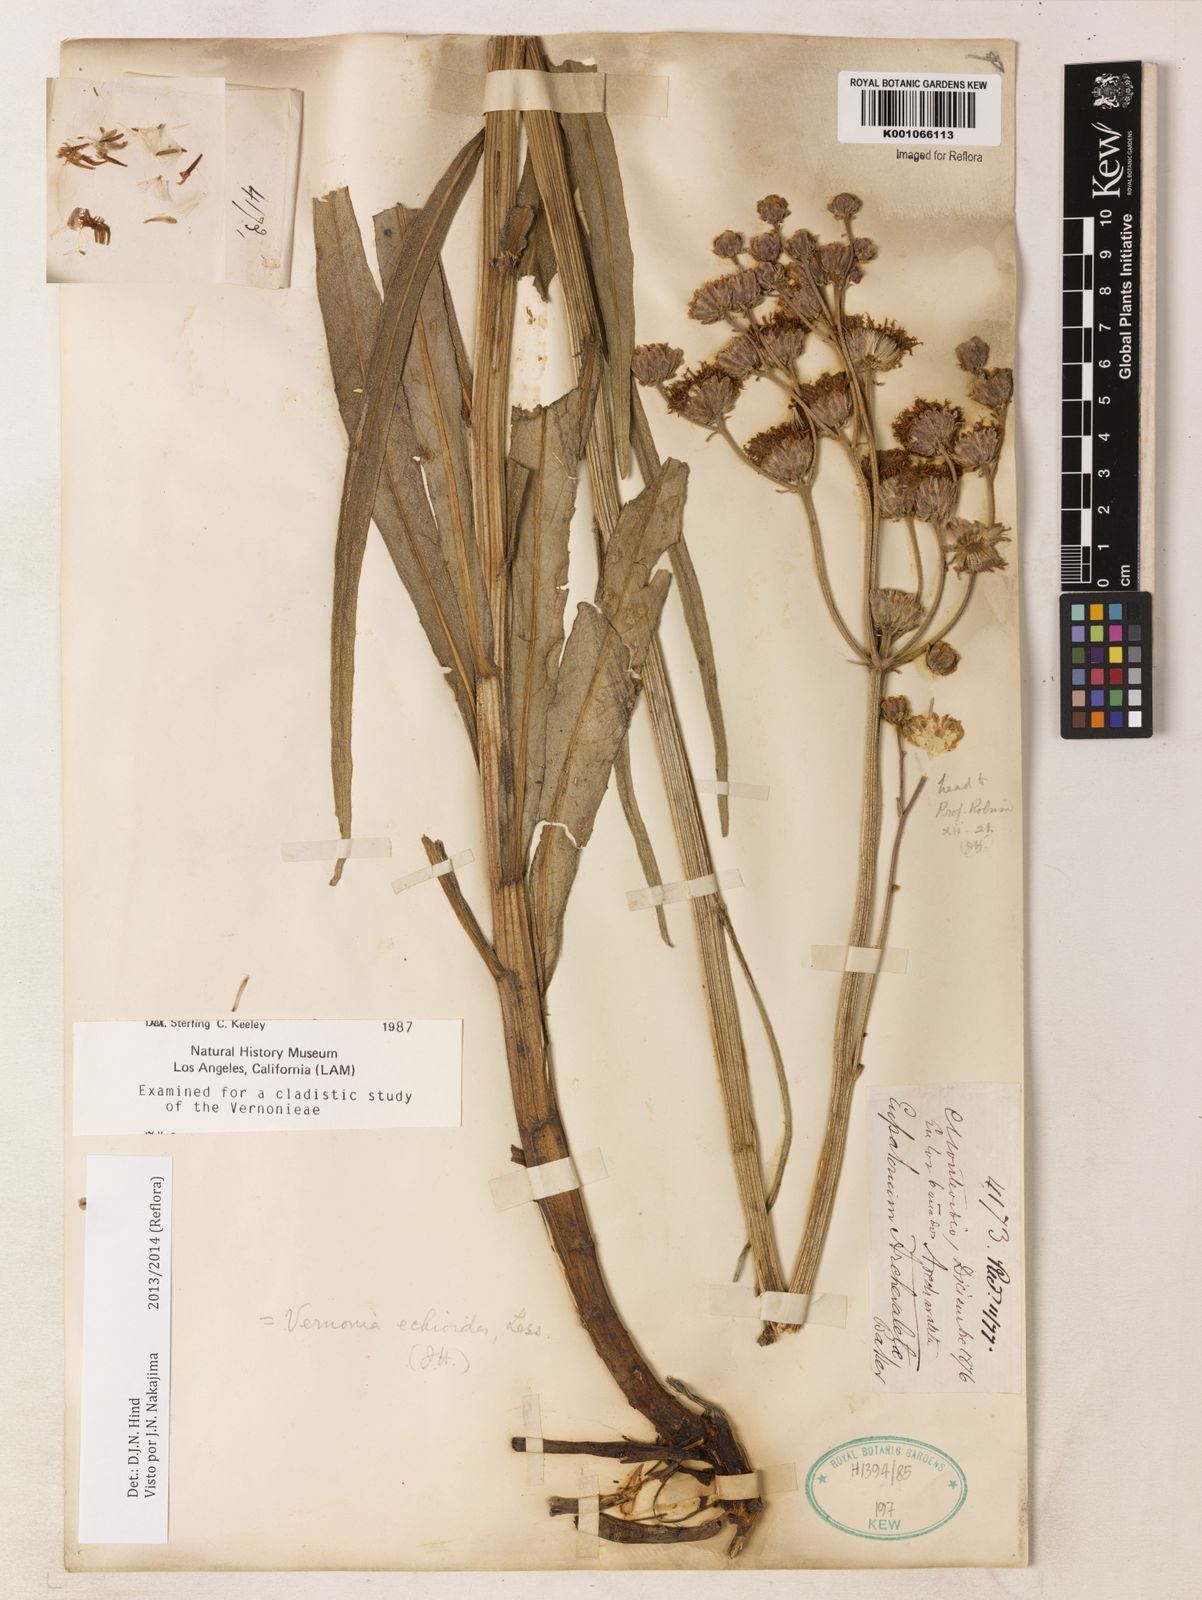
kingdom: Plantae
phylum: Tracheophyta
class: Magnoliopsida
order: Asterales
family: Asteraceae
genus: Vernonia
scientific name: Vernonia echioides
